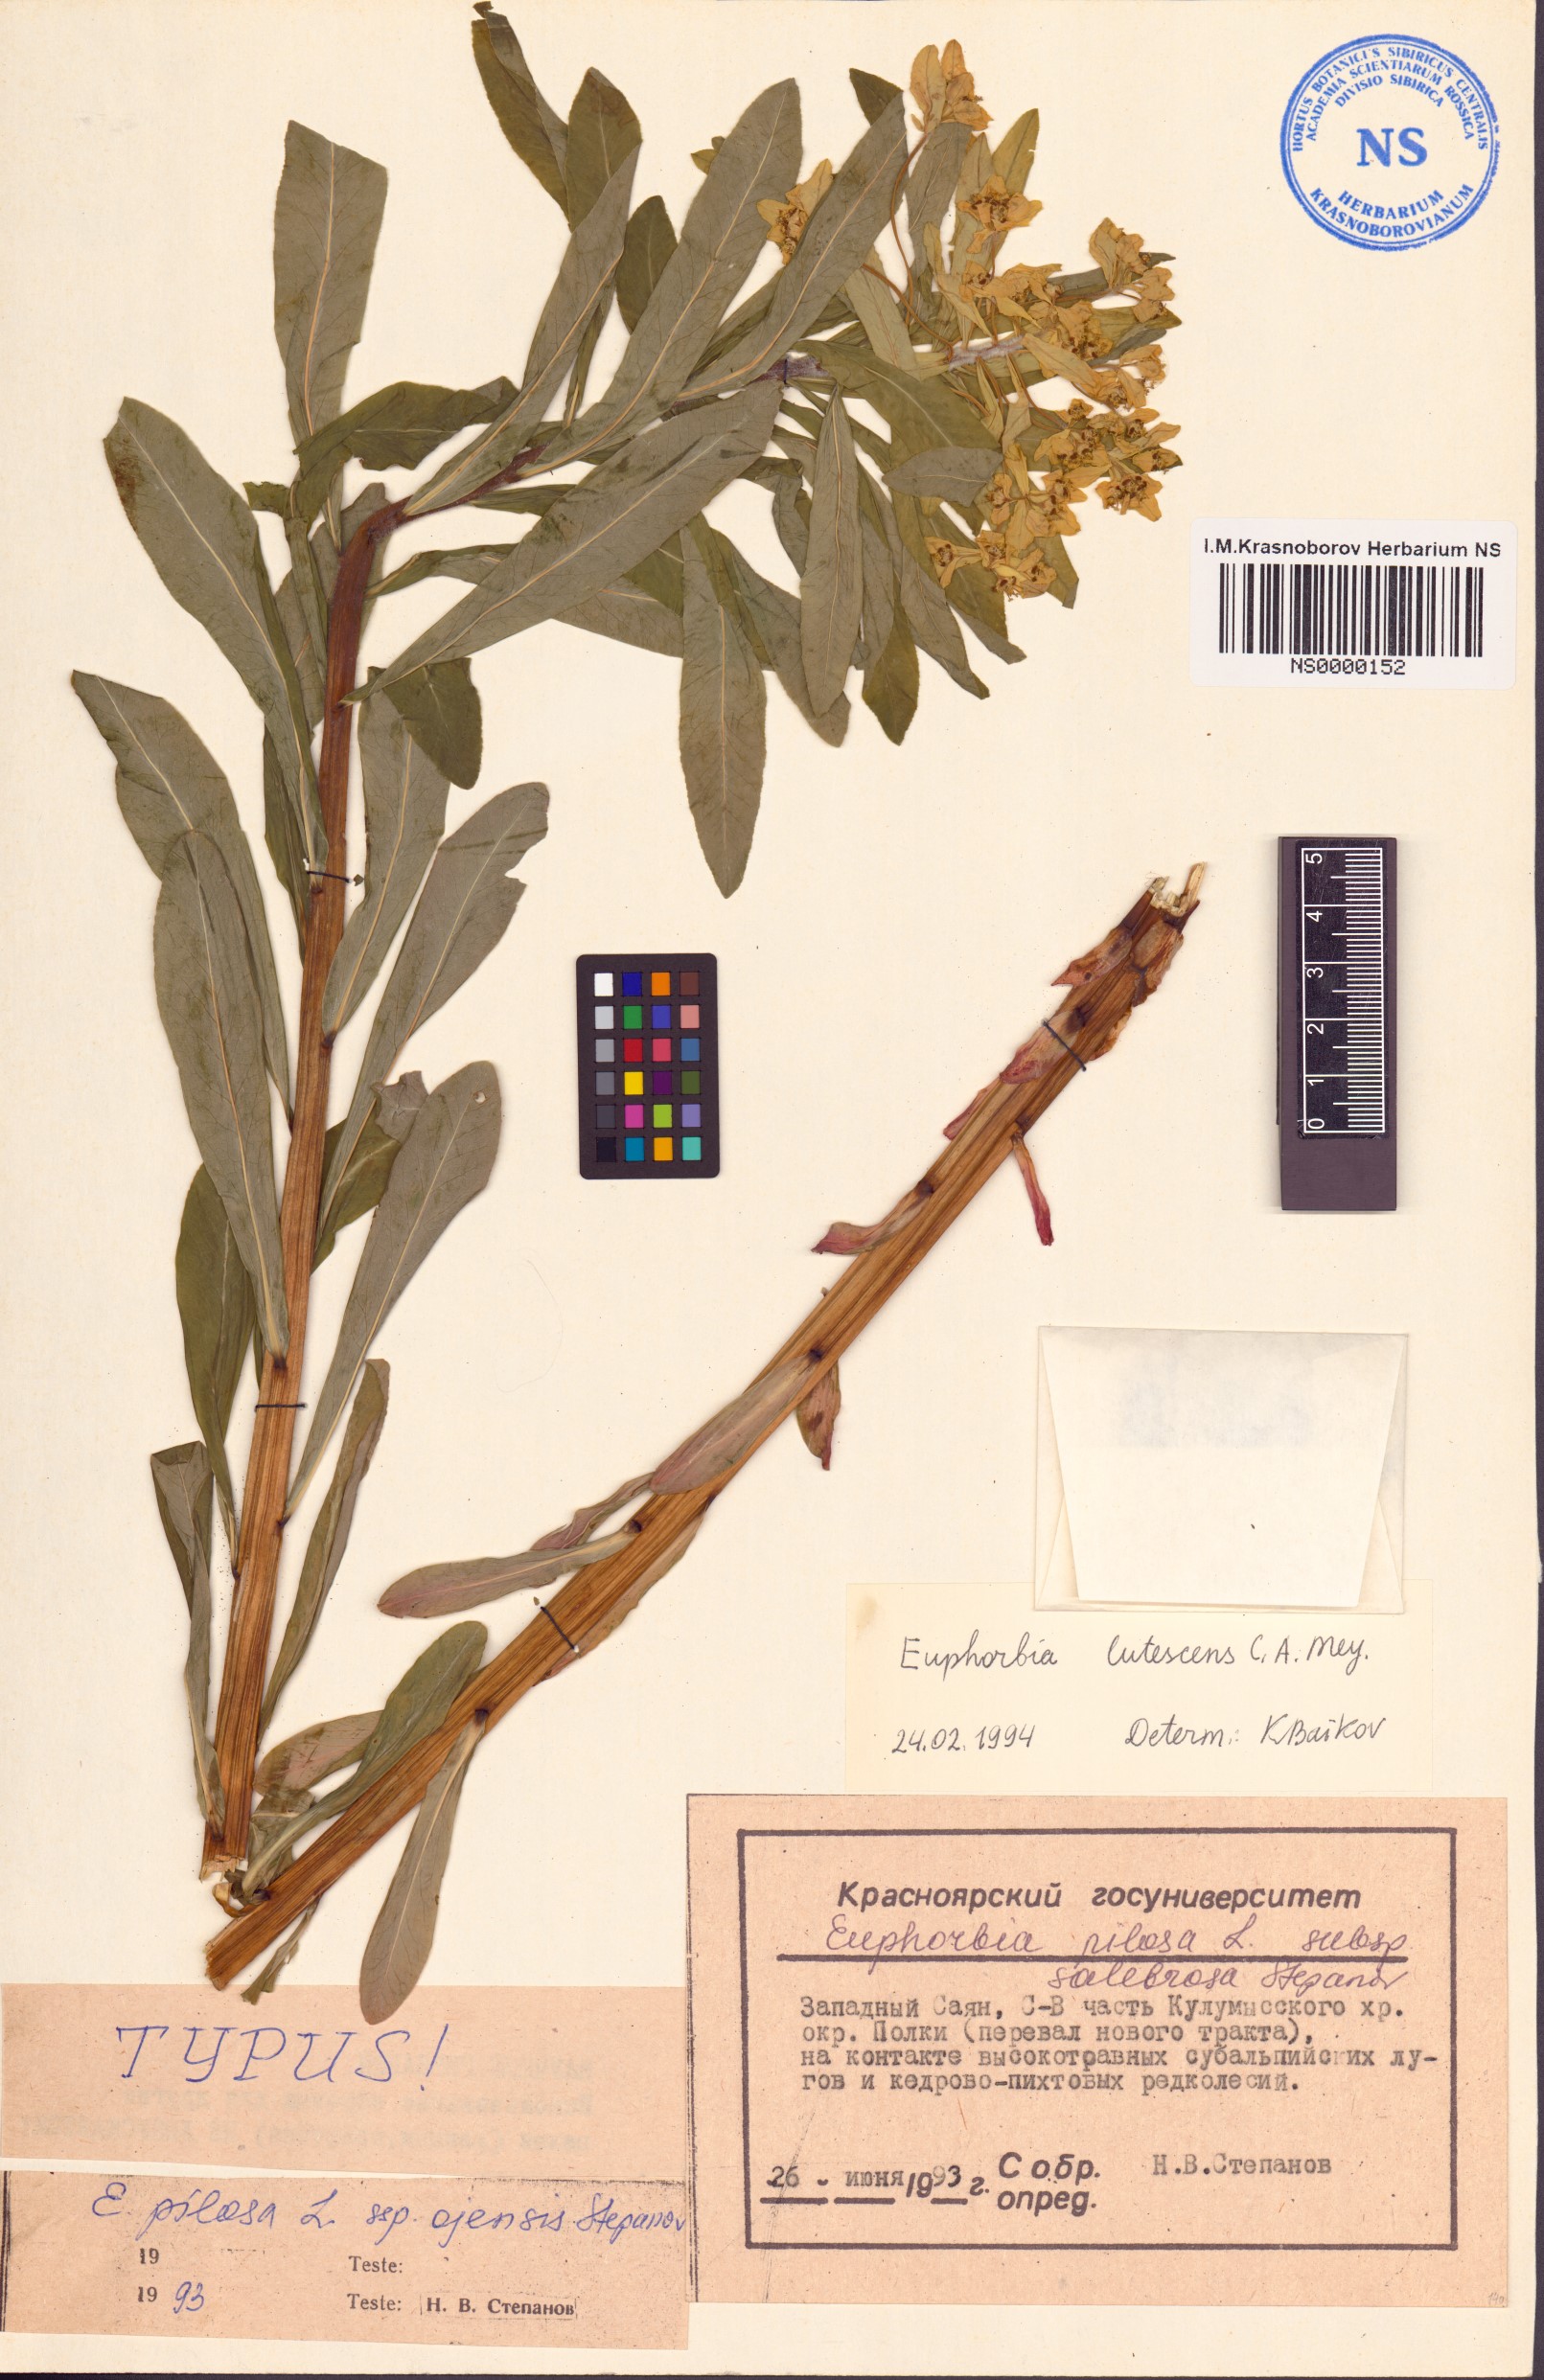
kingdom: Plantae
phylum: Tracheophyta
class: Magnoliopsida
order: Malpighiales
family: Euphorbiaceae
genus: Euphorbia
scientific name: Euphorbia pilosa
